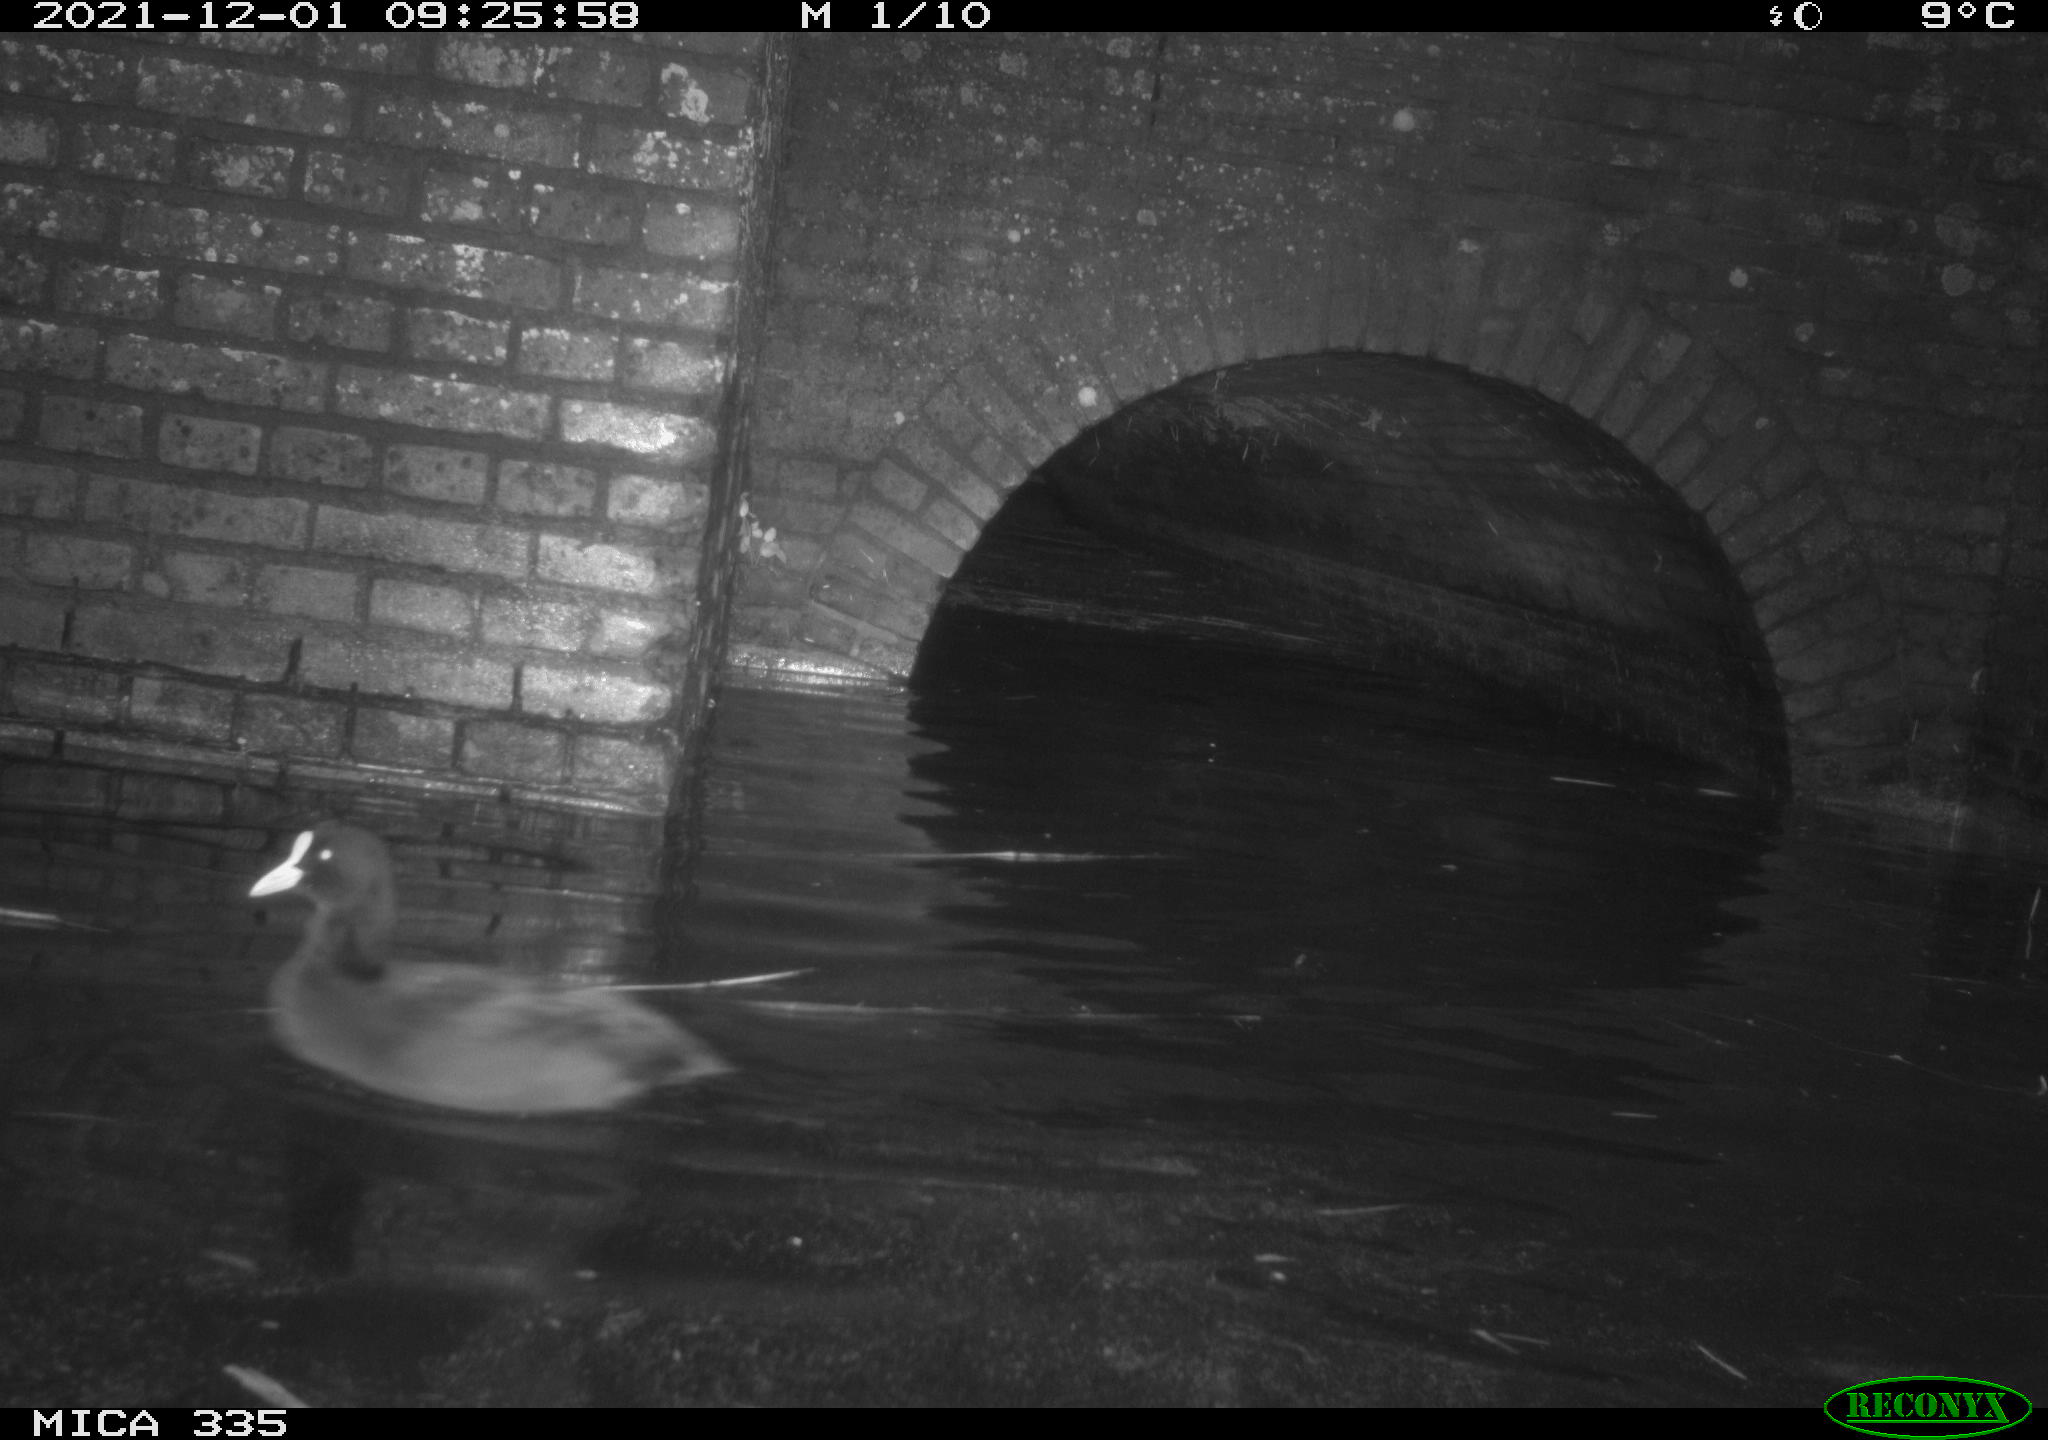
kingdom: Animalia
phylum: Chordata
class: Aves
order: Gruiformes
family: Rallidae
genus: Fulica
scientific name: Fulica atra
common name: Eurasian coot
